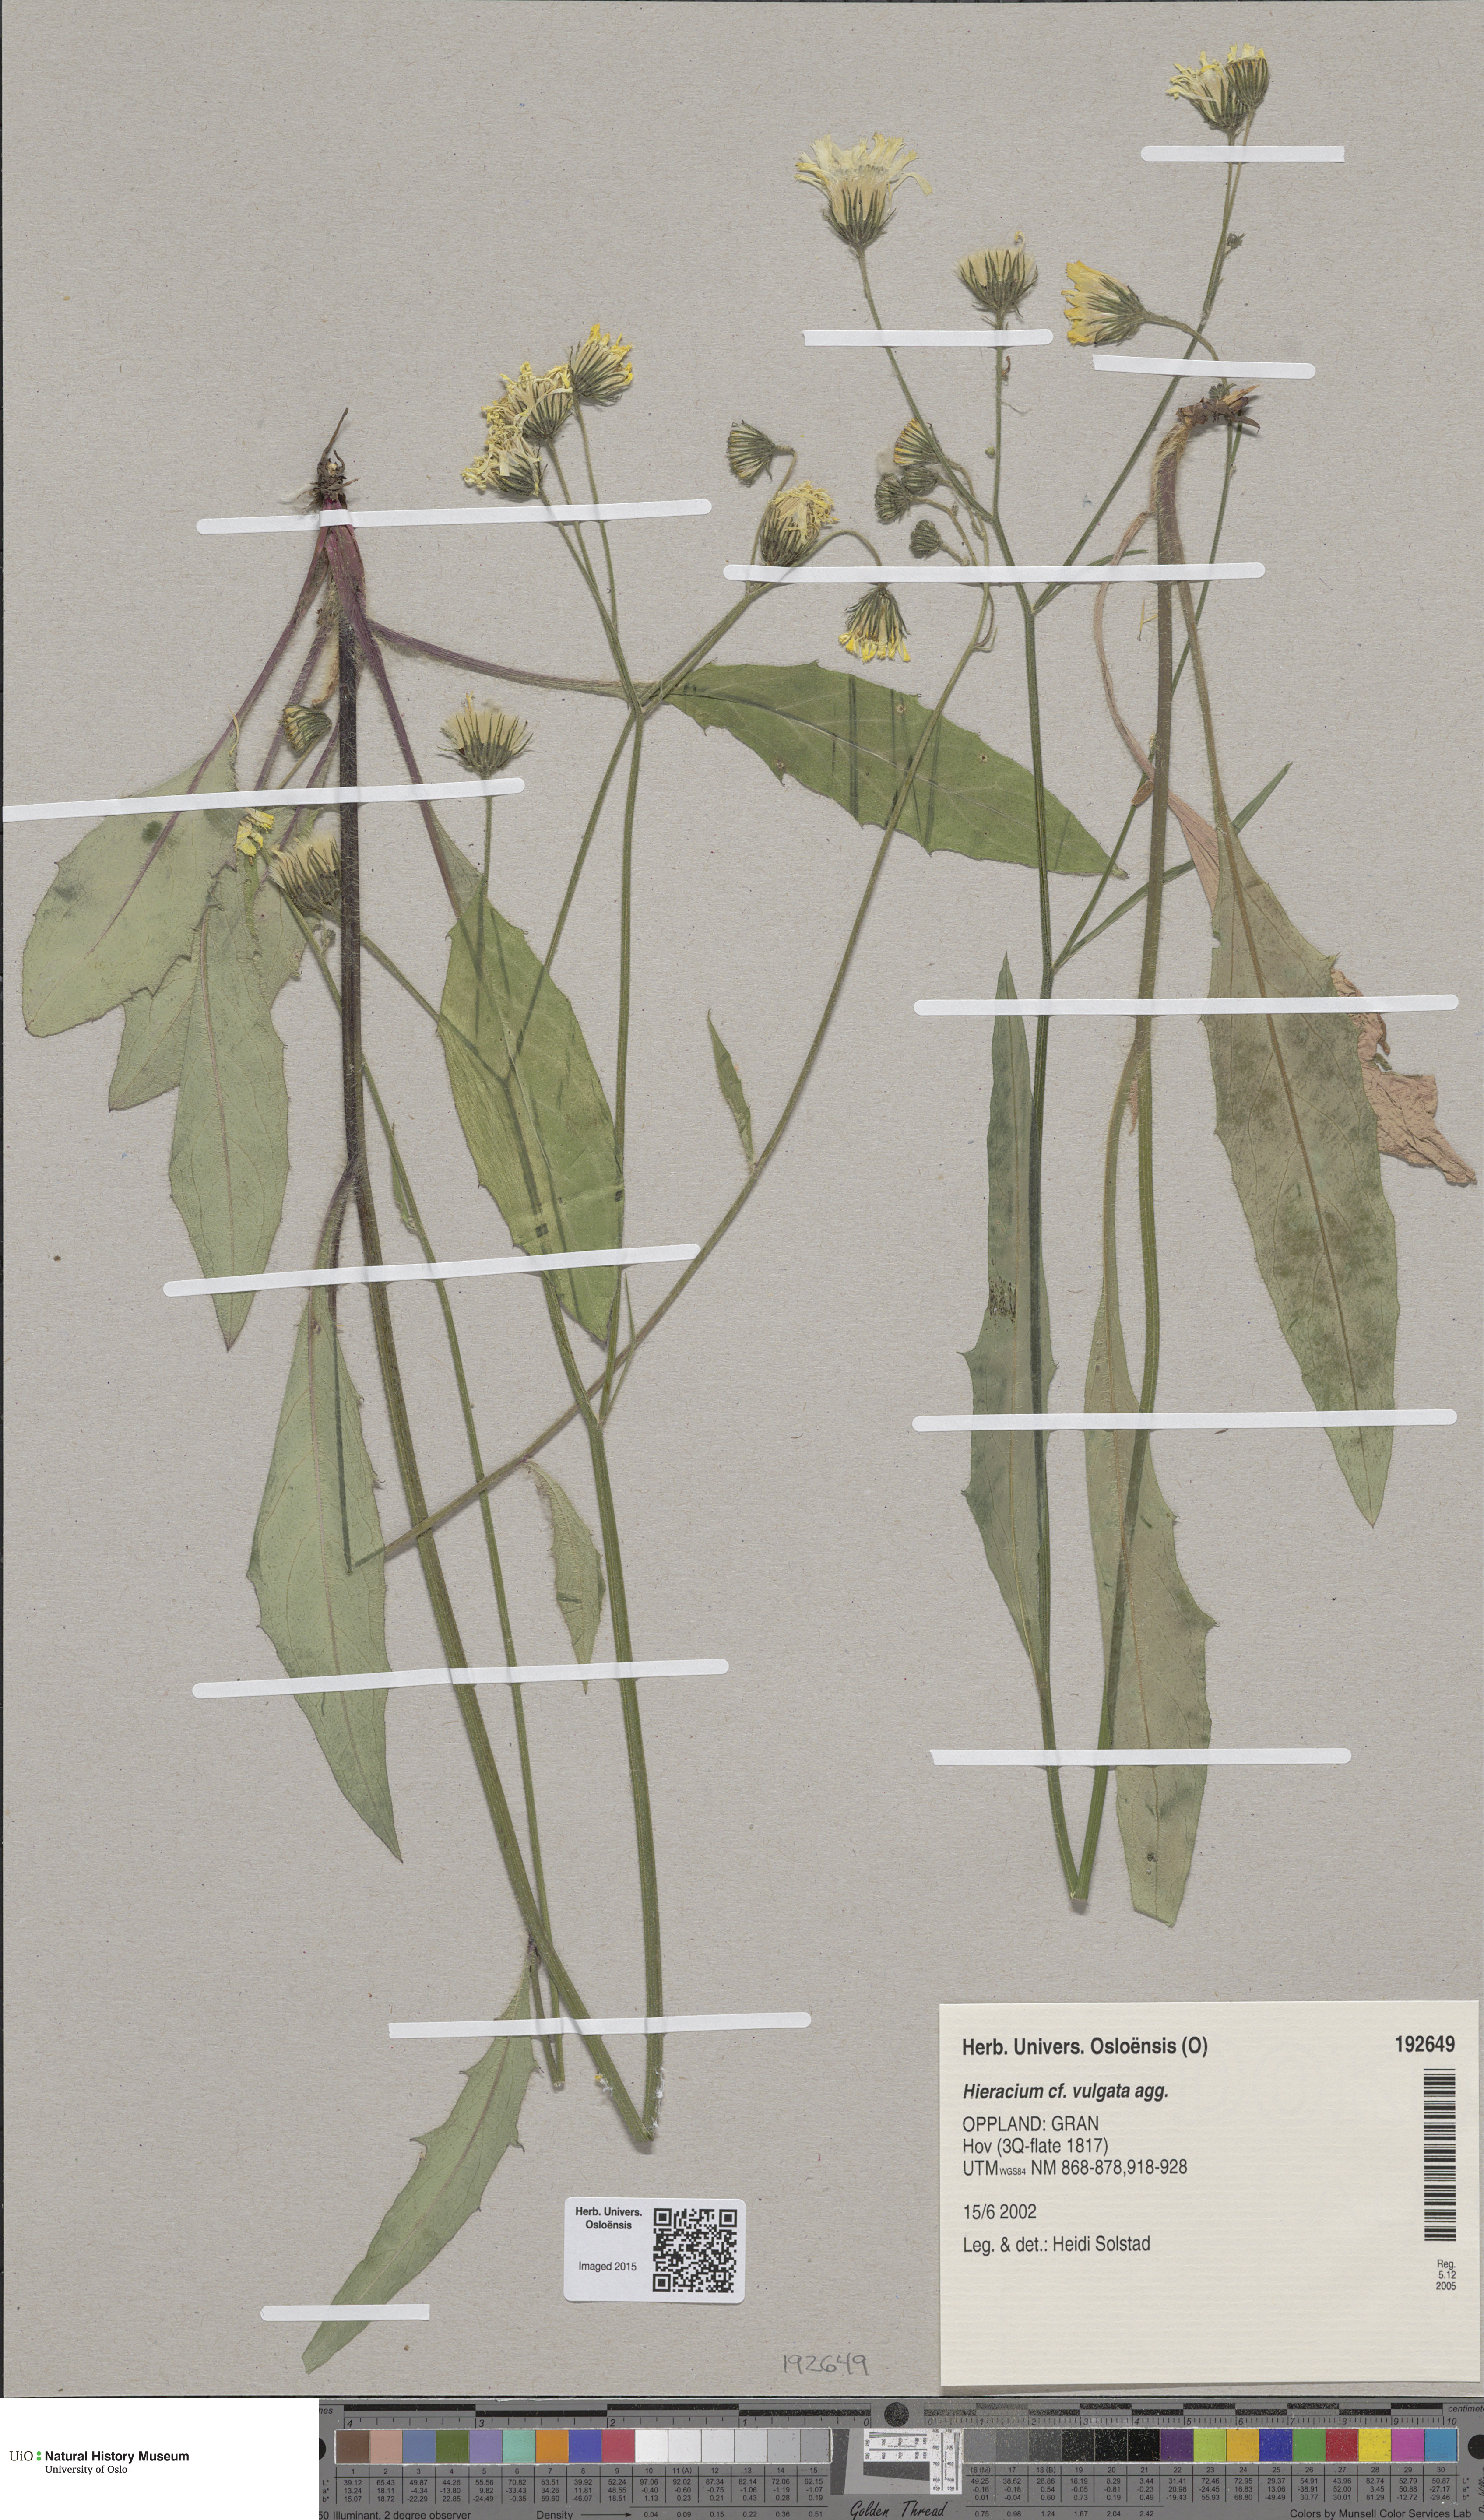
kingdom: Plantae
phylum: Tracheophyta
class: Magnoliopsida
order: Asterales
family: Asteraceae
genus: Hieracium
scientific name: Hieracium vulgatum
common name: Common hawkweed
